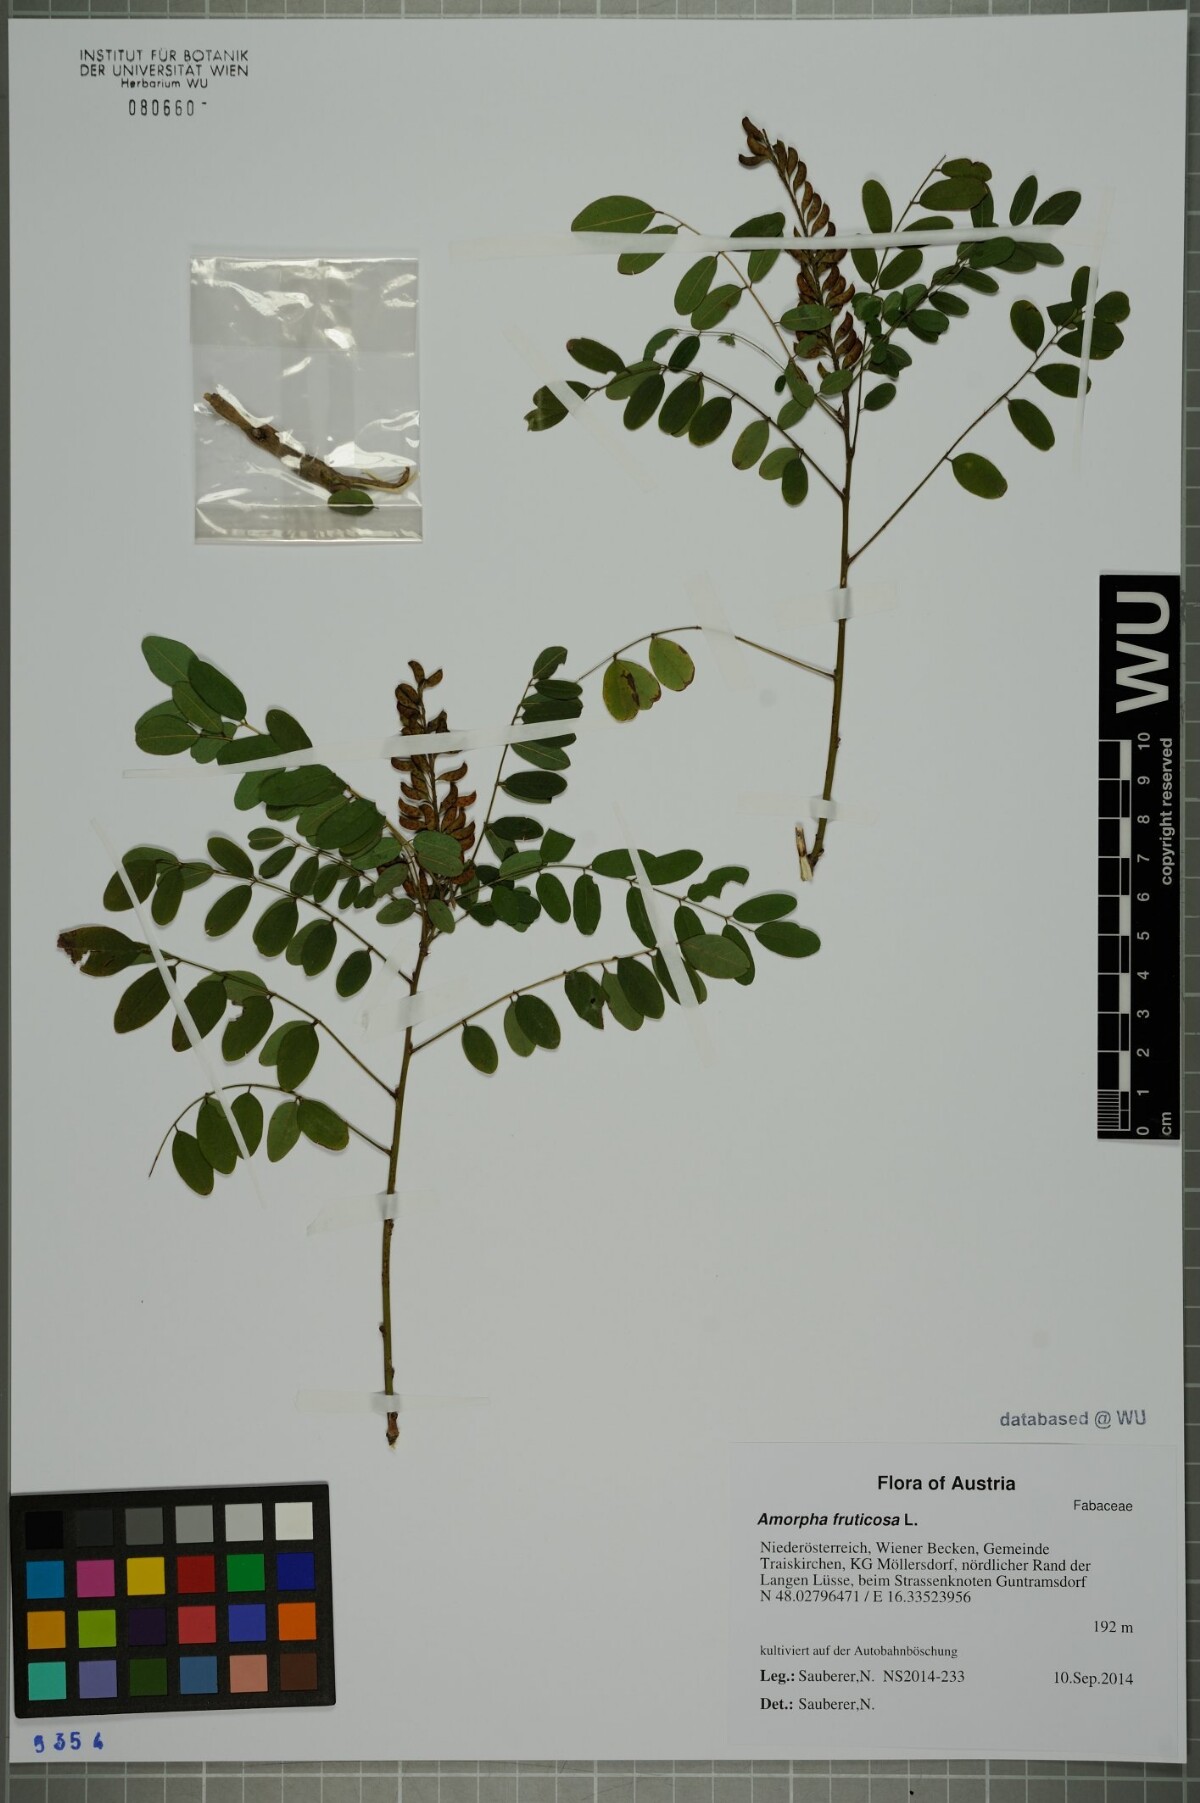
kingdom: Plantae
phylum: Tracheophyta
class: Magnoliopsida
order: Fabales
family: Fabaceae
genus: Amorpha
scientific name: Amorpha fruticosa
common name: False indigo
